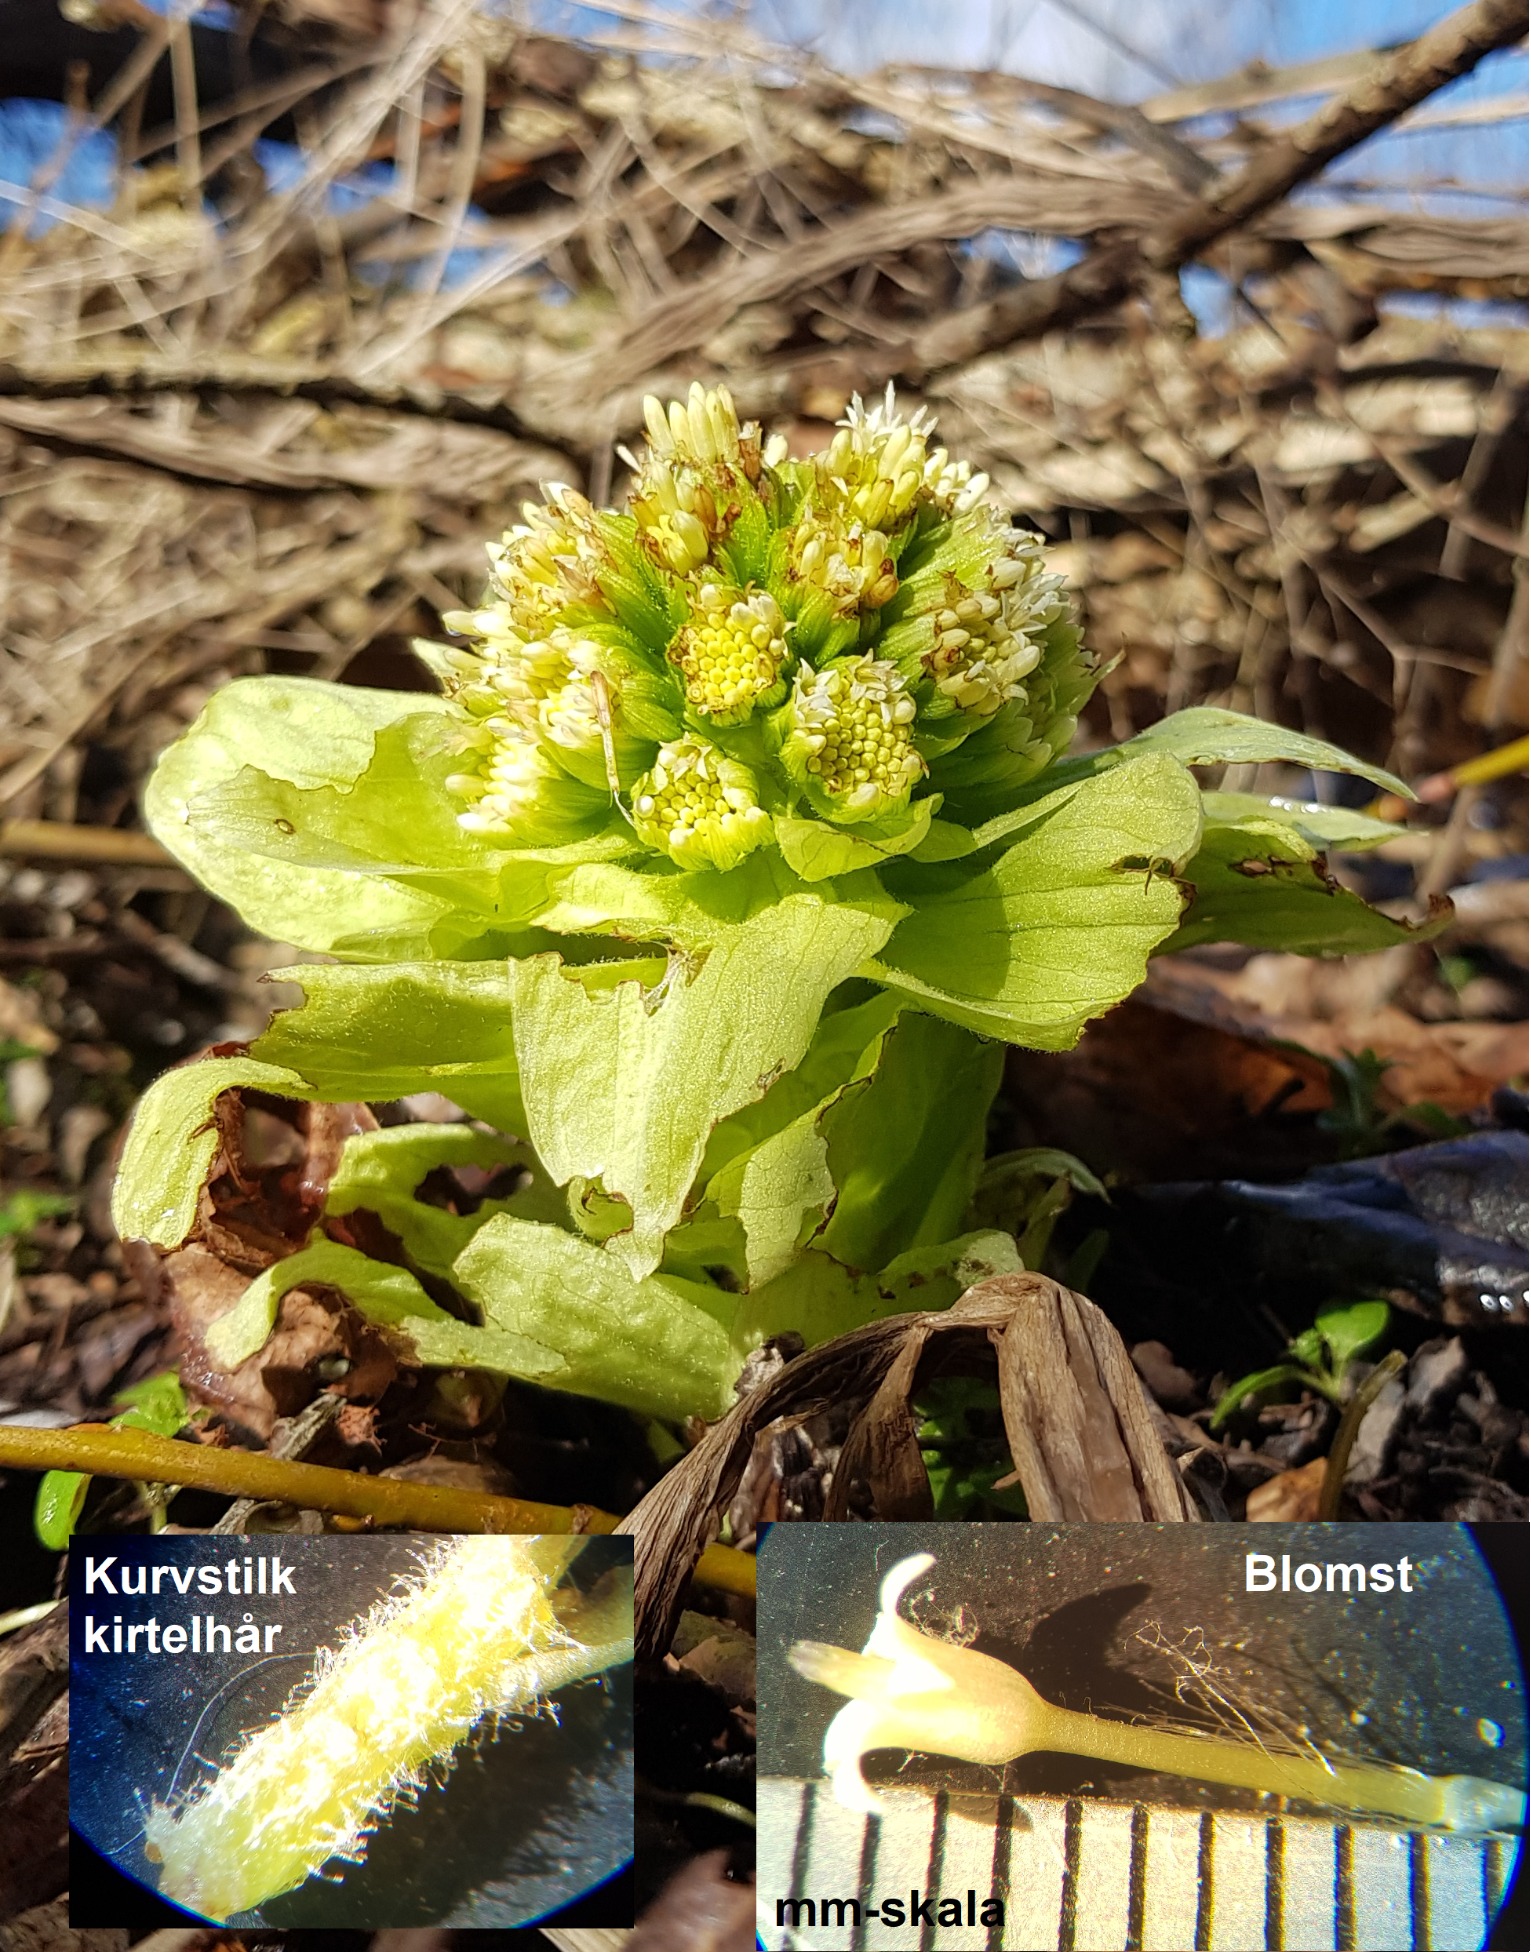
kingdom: Plantae
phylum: Tracheophyta
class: Magnoliopsida
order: Asterales
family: Asteraceae
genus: Petasites
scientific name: Petasites japonicus
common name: Japansk hestehov
